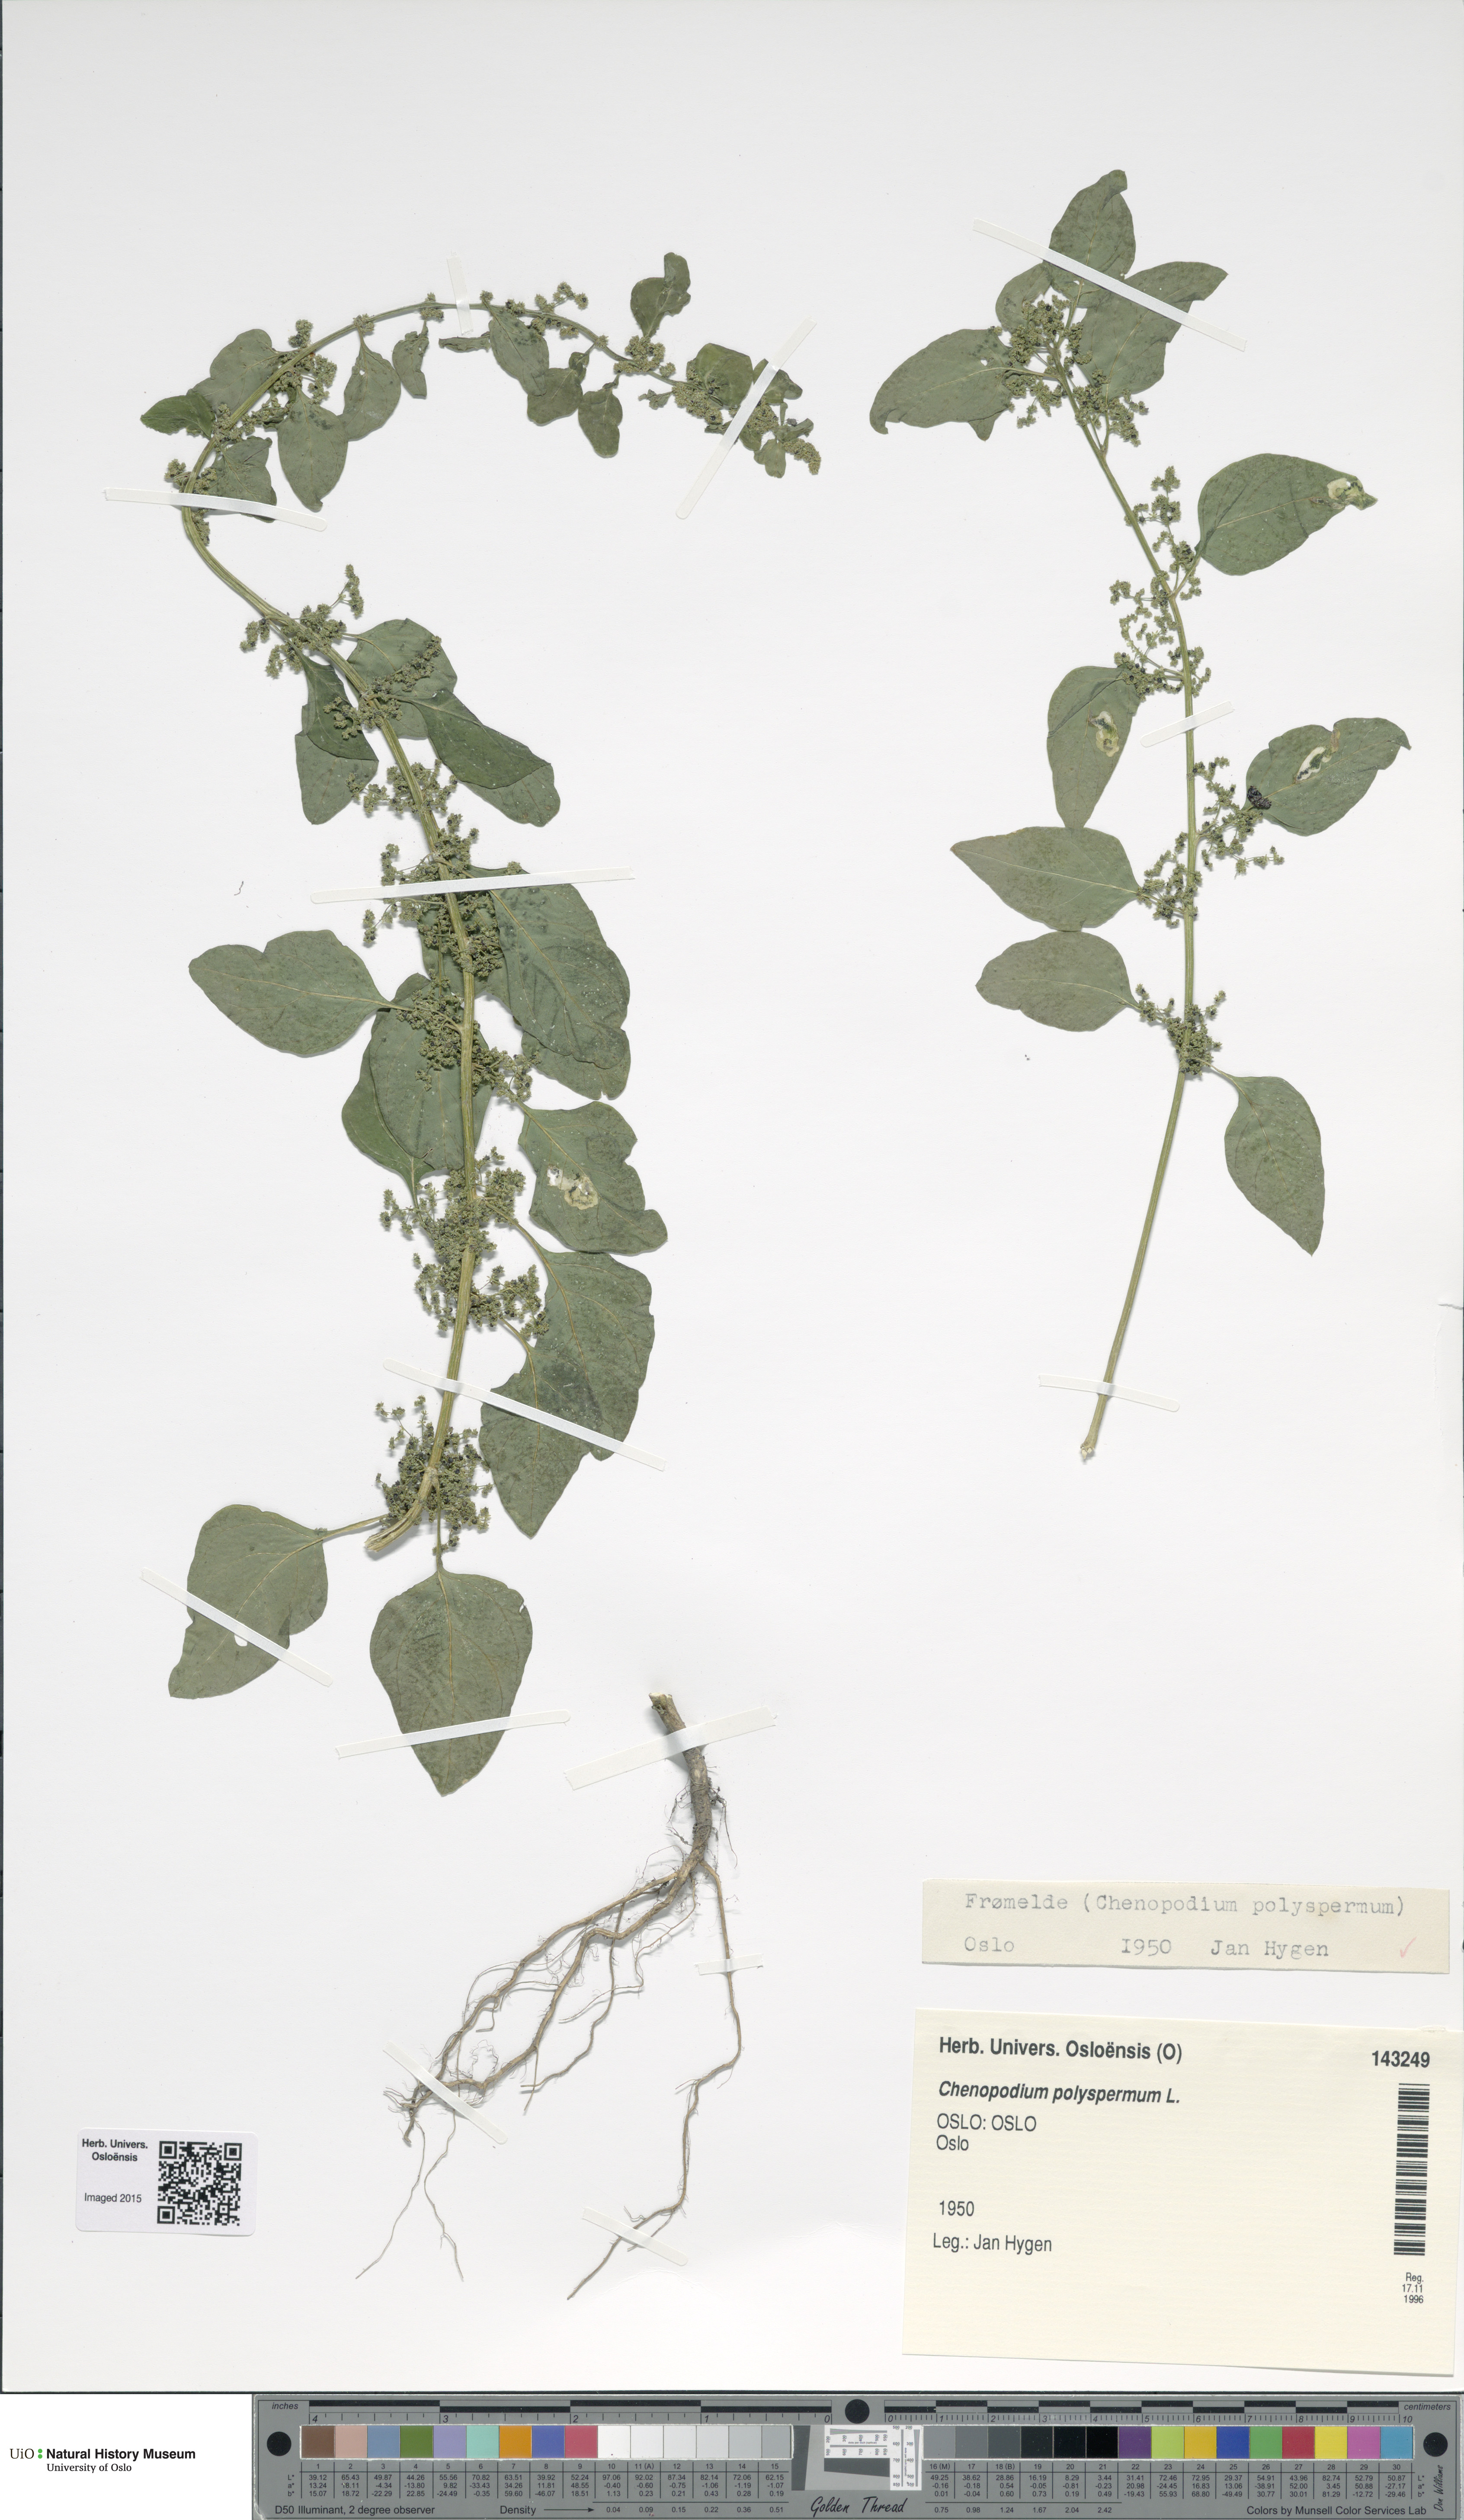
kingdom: Plantae
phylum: Tracheophyta
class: Magnoliopsida
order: Caryophyllales
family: Amaranthaceae
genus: Lipandra
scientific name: Lipandra polysperma
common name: Many-seed goosefoot
